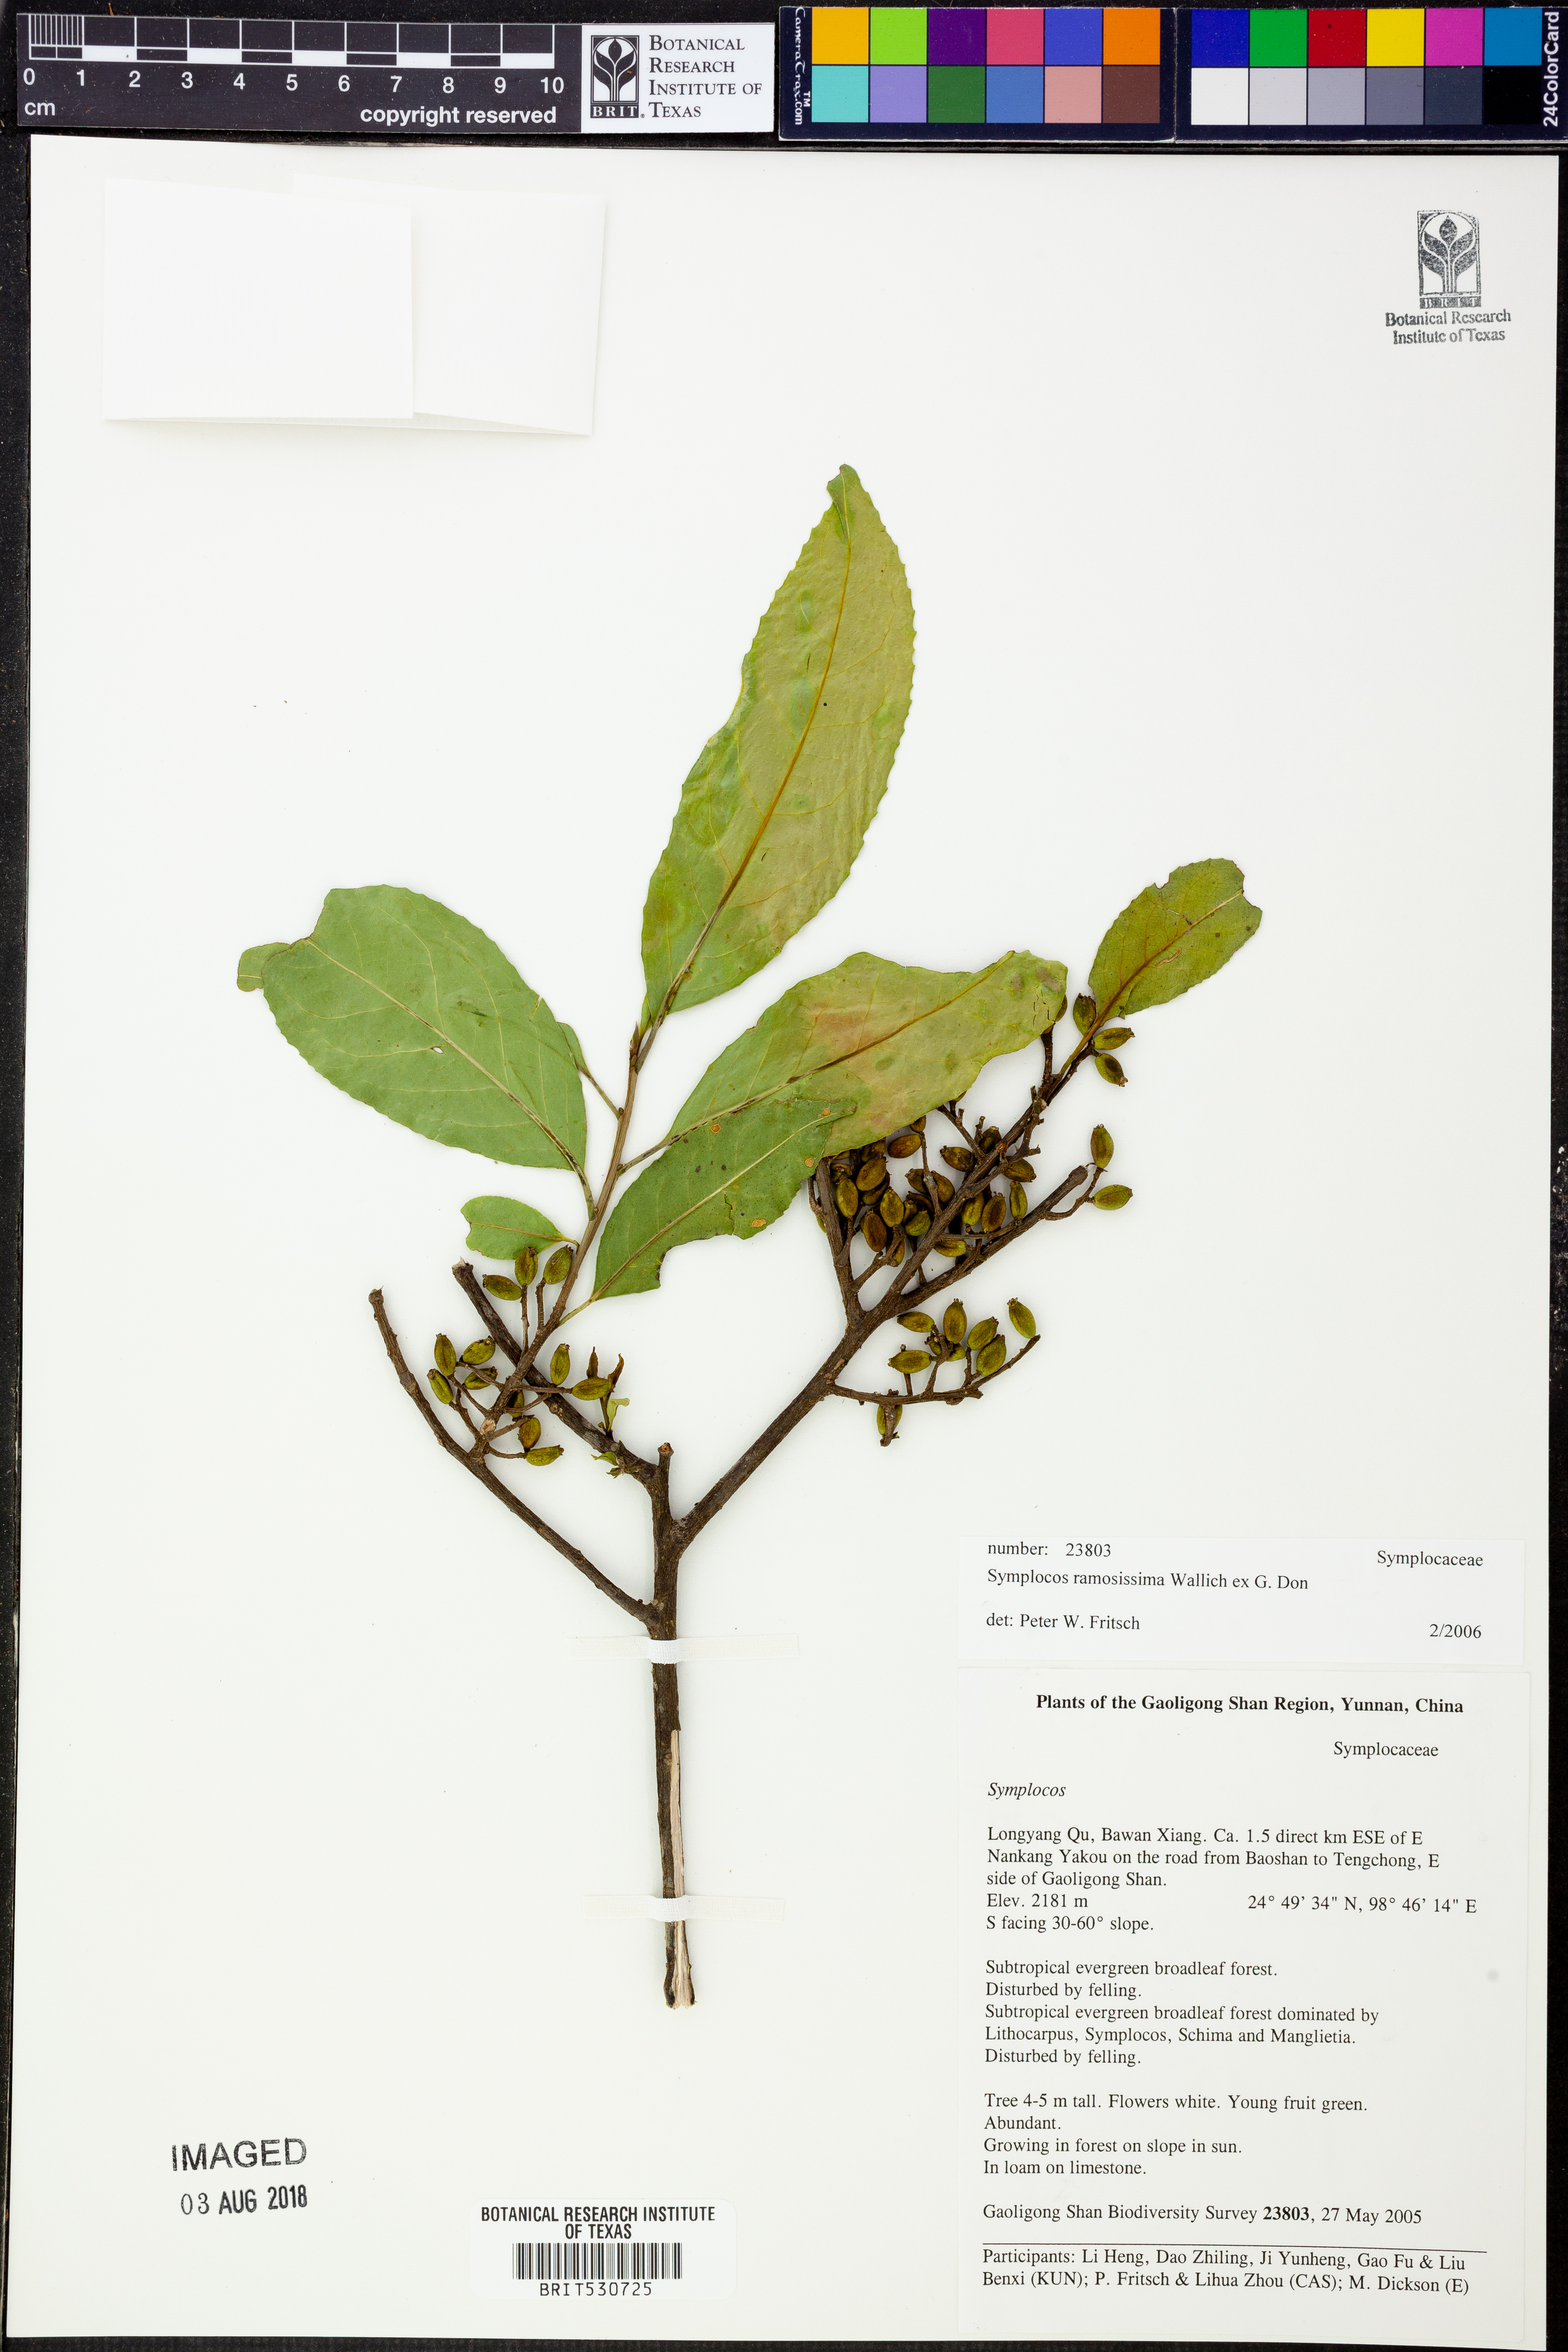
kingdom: Plantae
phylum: Tracheophyta
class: Magnoliopsida
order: Ericales
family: Symplocaceae
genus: Symplocos
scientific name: Symplocos ramosissima
